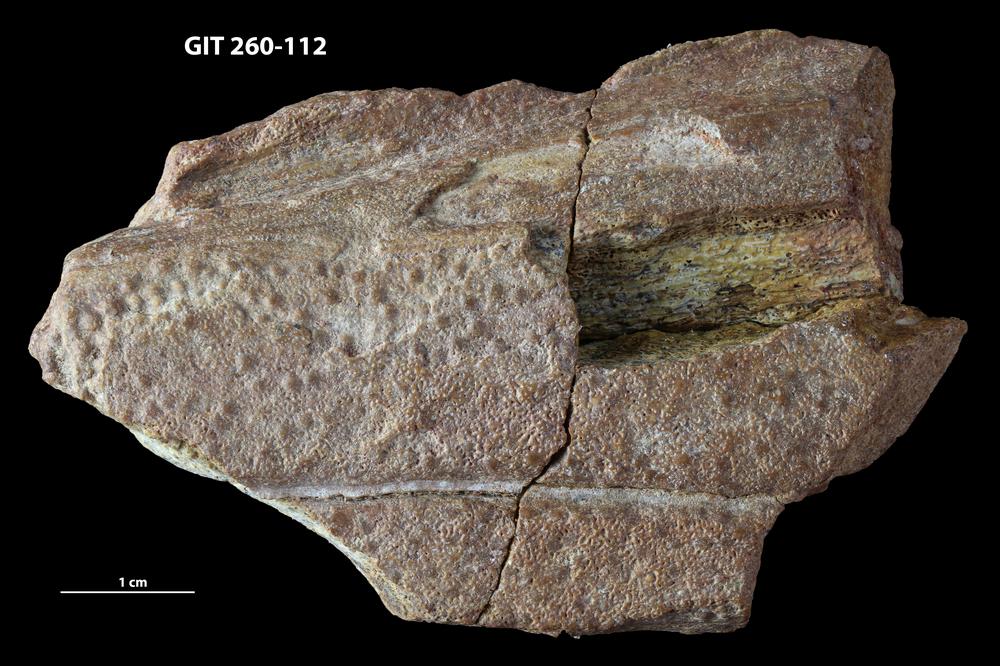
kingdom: Animalia
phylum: Chordata
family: Homostiidae
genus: Homostius
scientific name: Homostius
